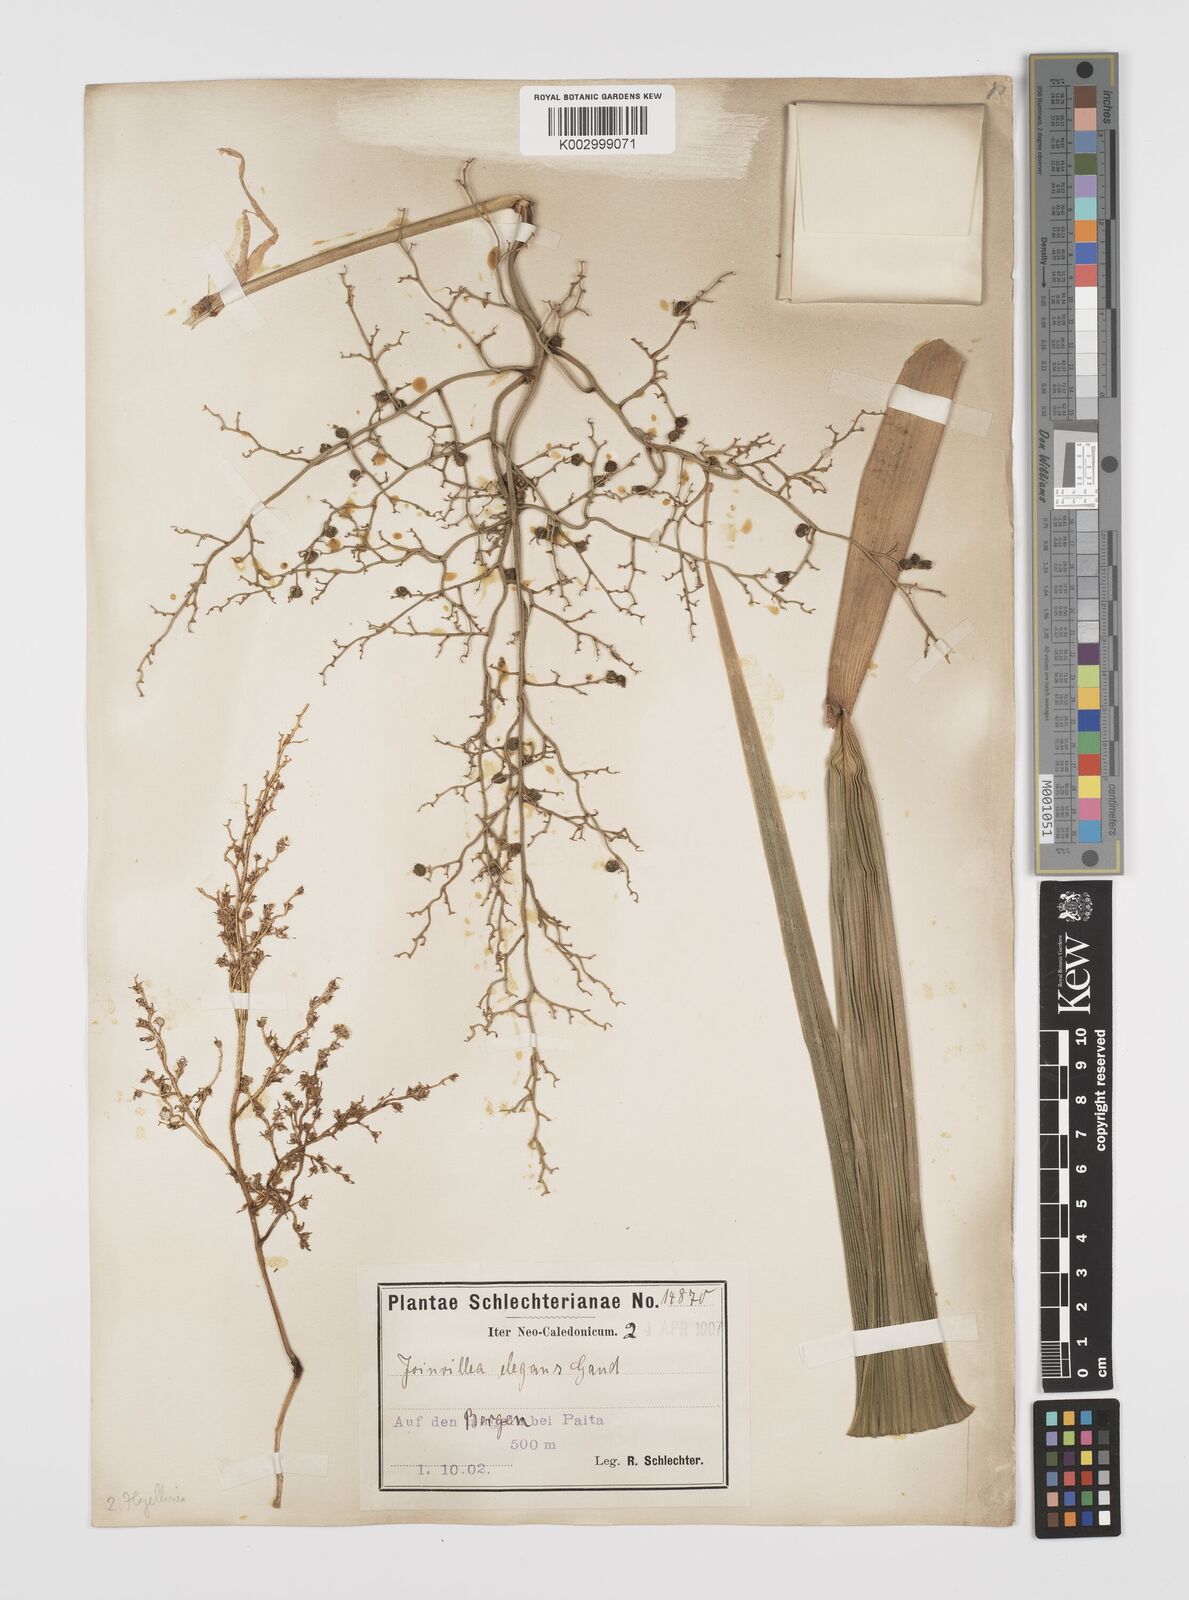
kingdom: Plantae
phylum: Tracheophyta
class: Liliopsida
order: Poales
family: Joinvilleaceae
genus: Joinvillea
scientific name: Joinvillea plicata
